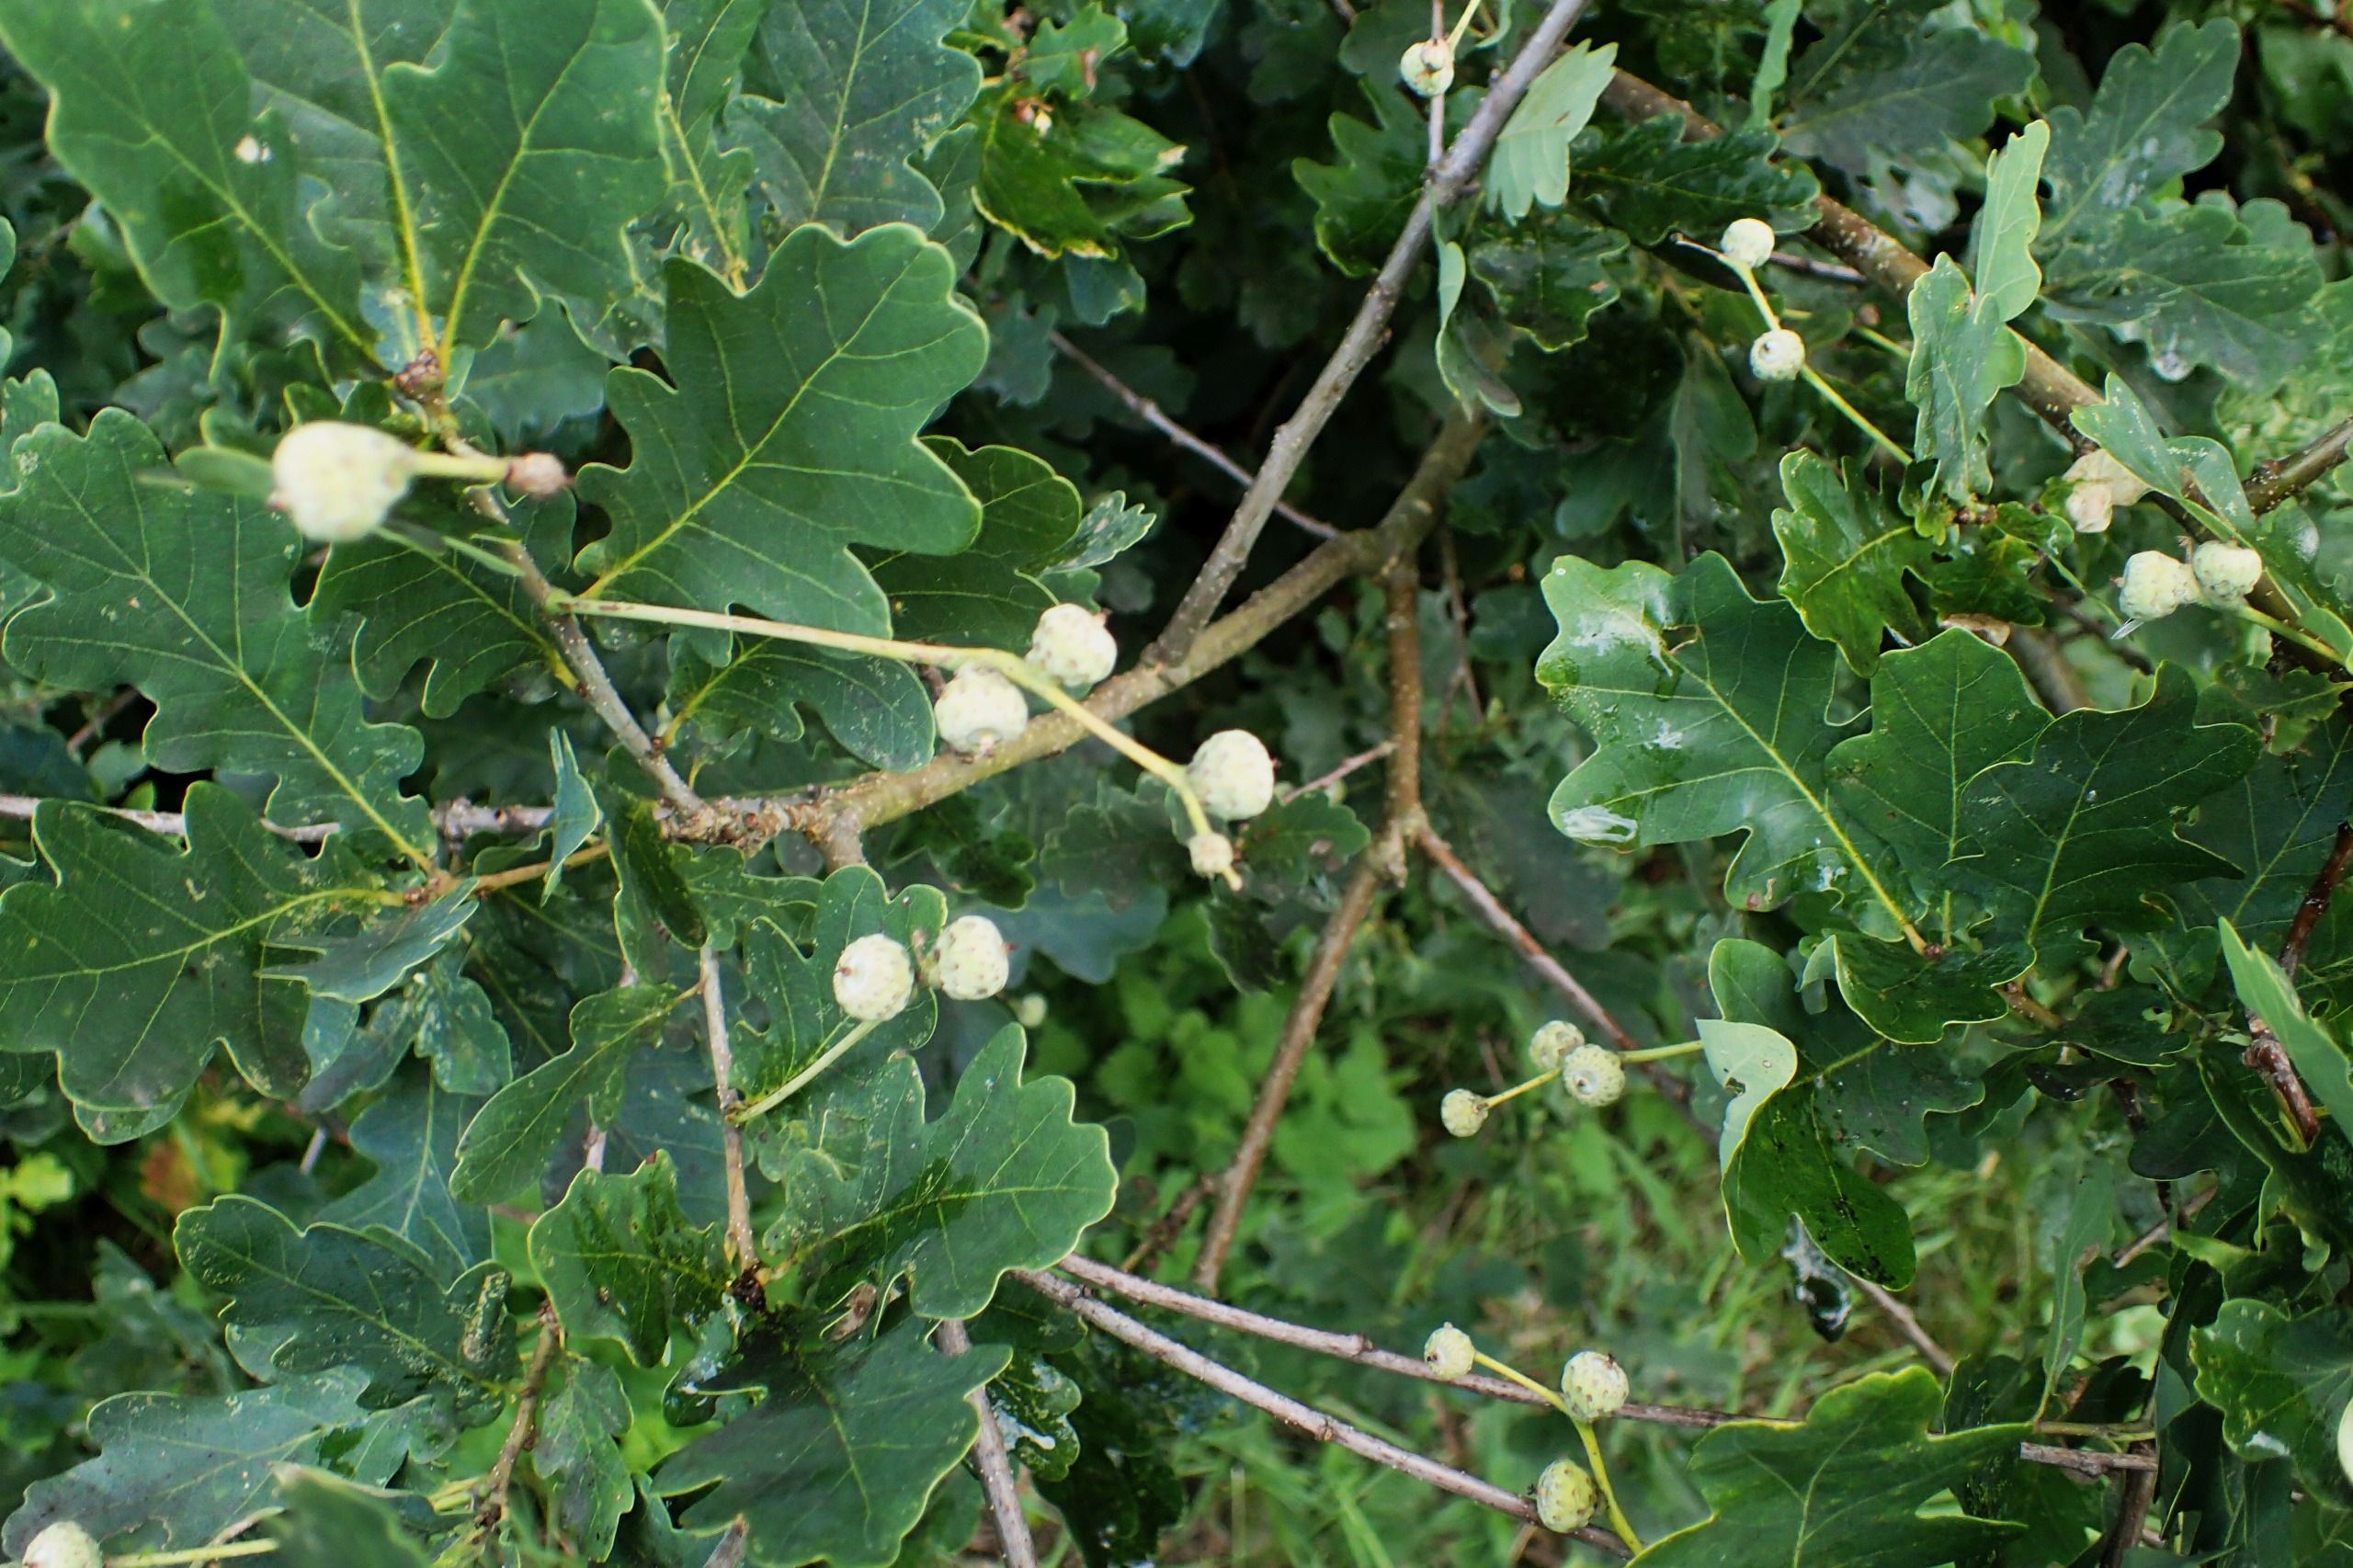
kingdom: Plantae
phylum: Tracheophyta
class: Magnoliopsida
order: Fagales
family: Fagaceae
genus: Quercus
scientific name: Quercus robur
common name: Stilk-eg/almindelig eg
